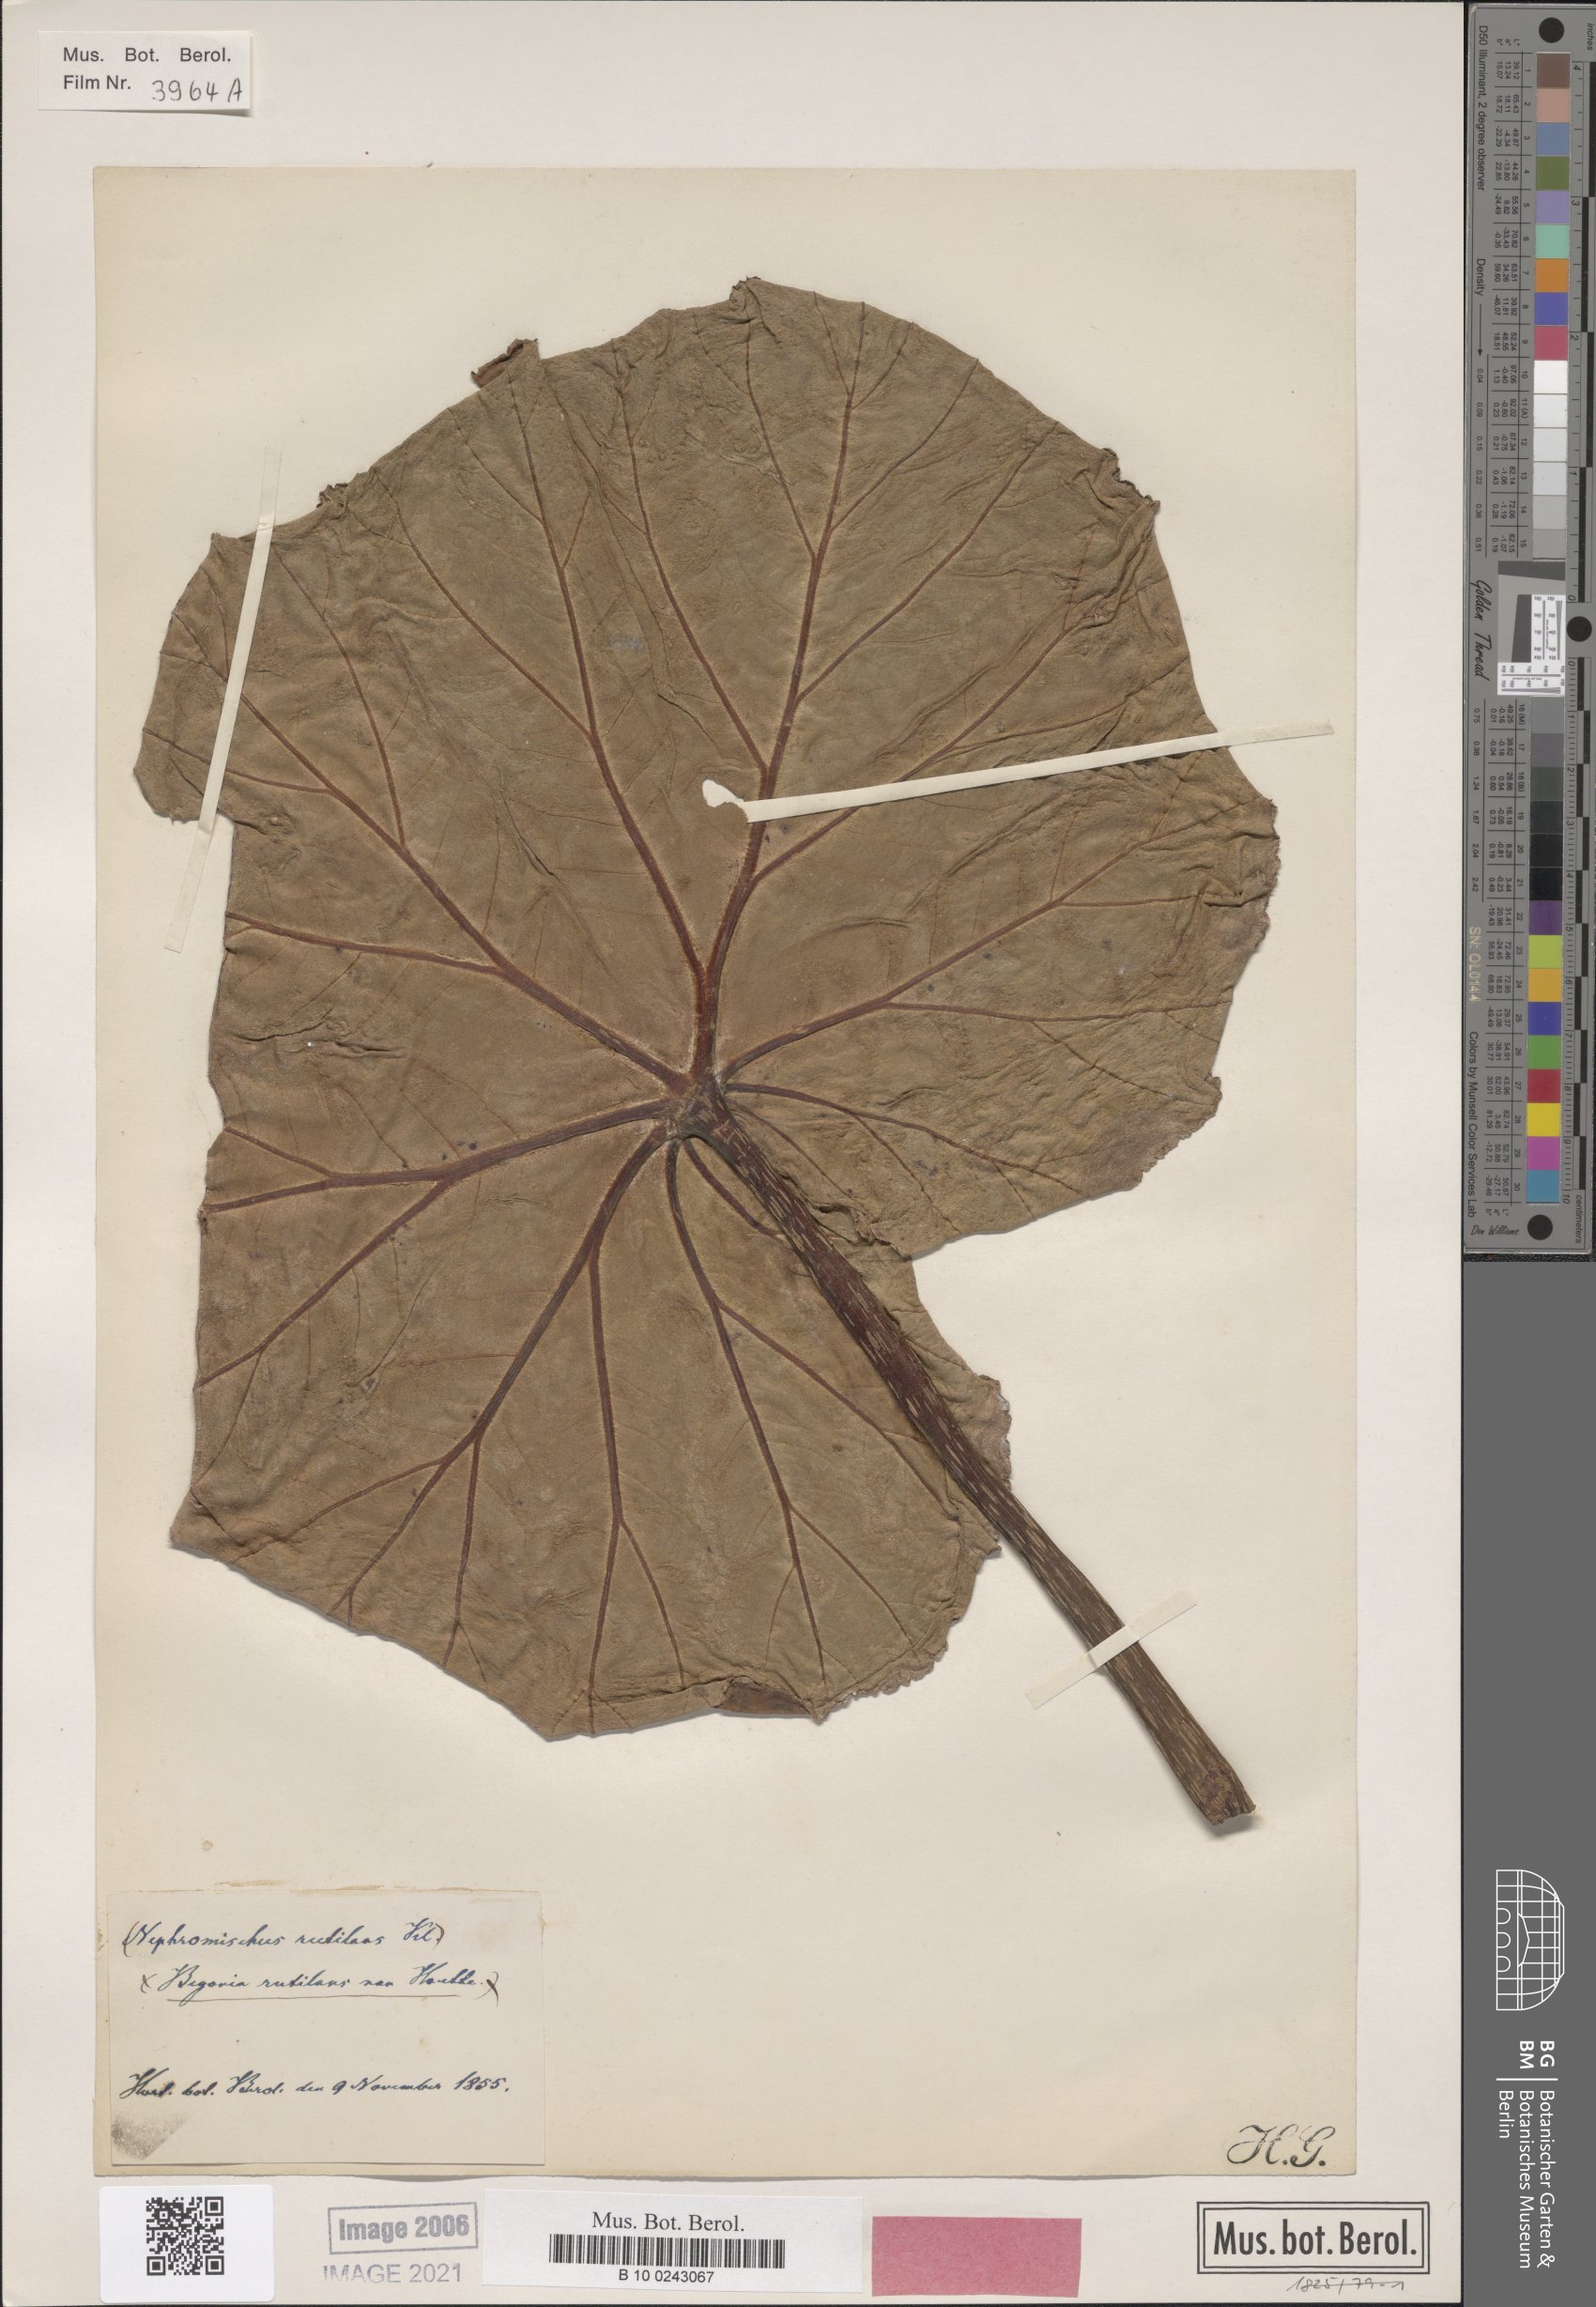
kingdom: Plantae
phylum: Tracheophyta
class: Magnoliopsida
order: Cucurbitales
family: Begoniaceae
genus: Begonia
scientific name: Begonia rutilans
